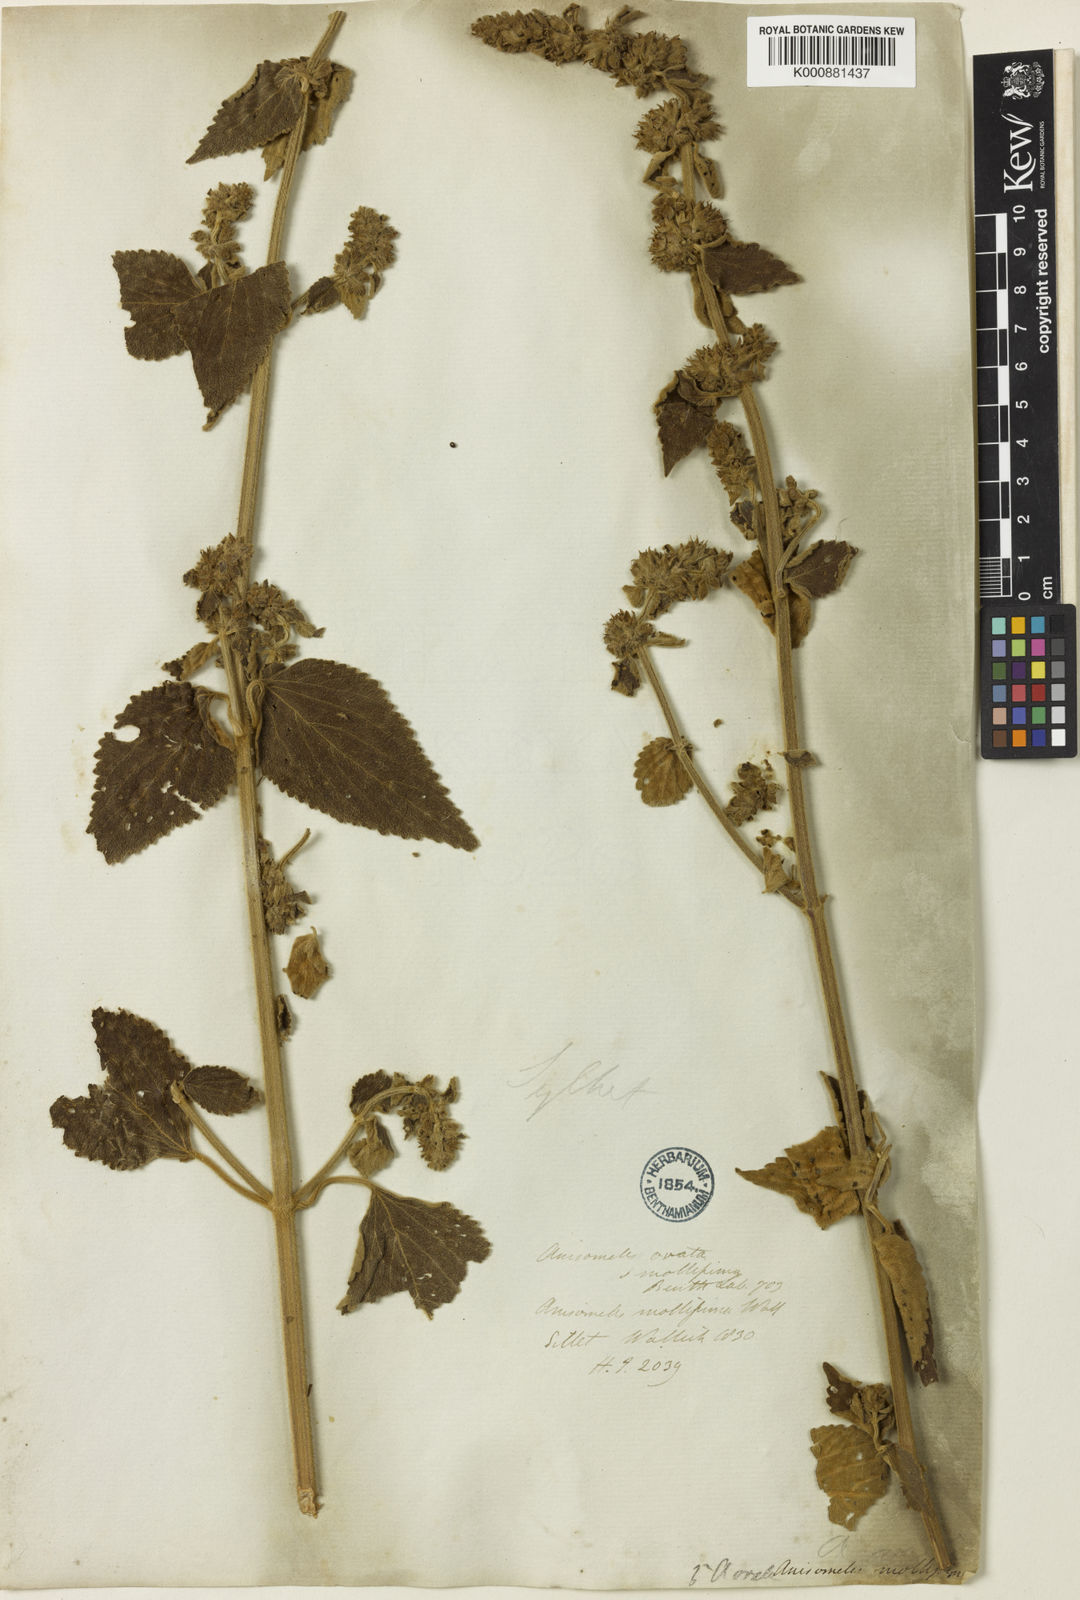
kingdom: Plantae
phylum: Tracheophyta
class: Magnoliopsida
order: Lamiales
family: Lamiaceae
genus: Anisomeles
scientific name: Anisomeles indica
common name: Catmint
